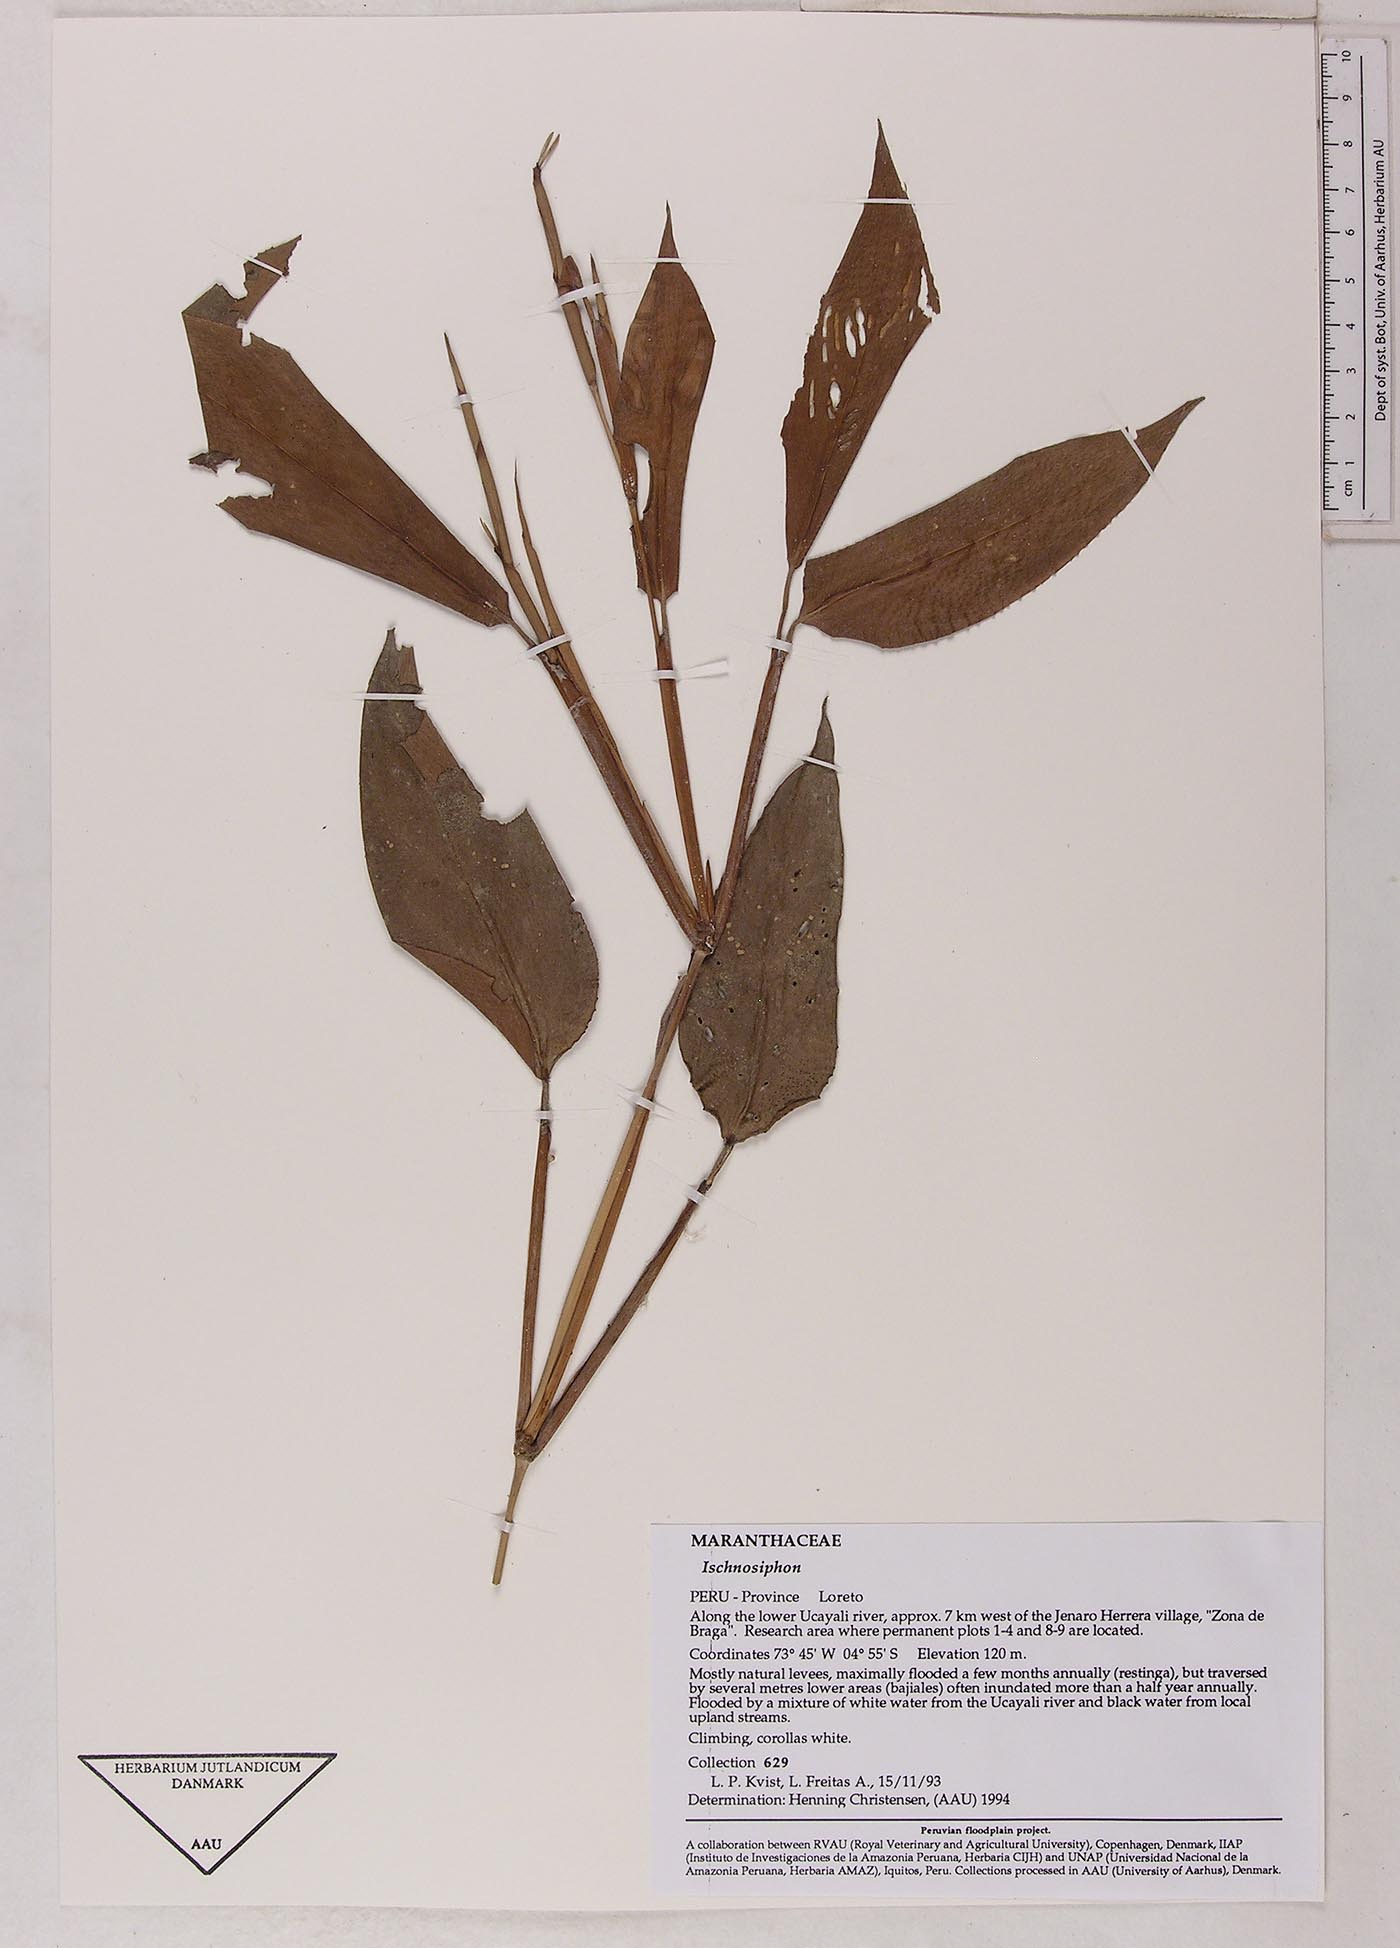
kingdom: Plantae
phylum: Tracheophyta
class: Liliopsida
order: Zingiberales
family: Marantaceae
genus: Ischnosiphon
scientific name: Ischnosiphon
